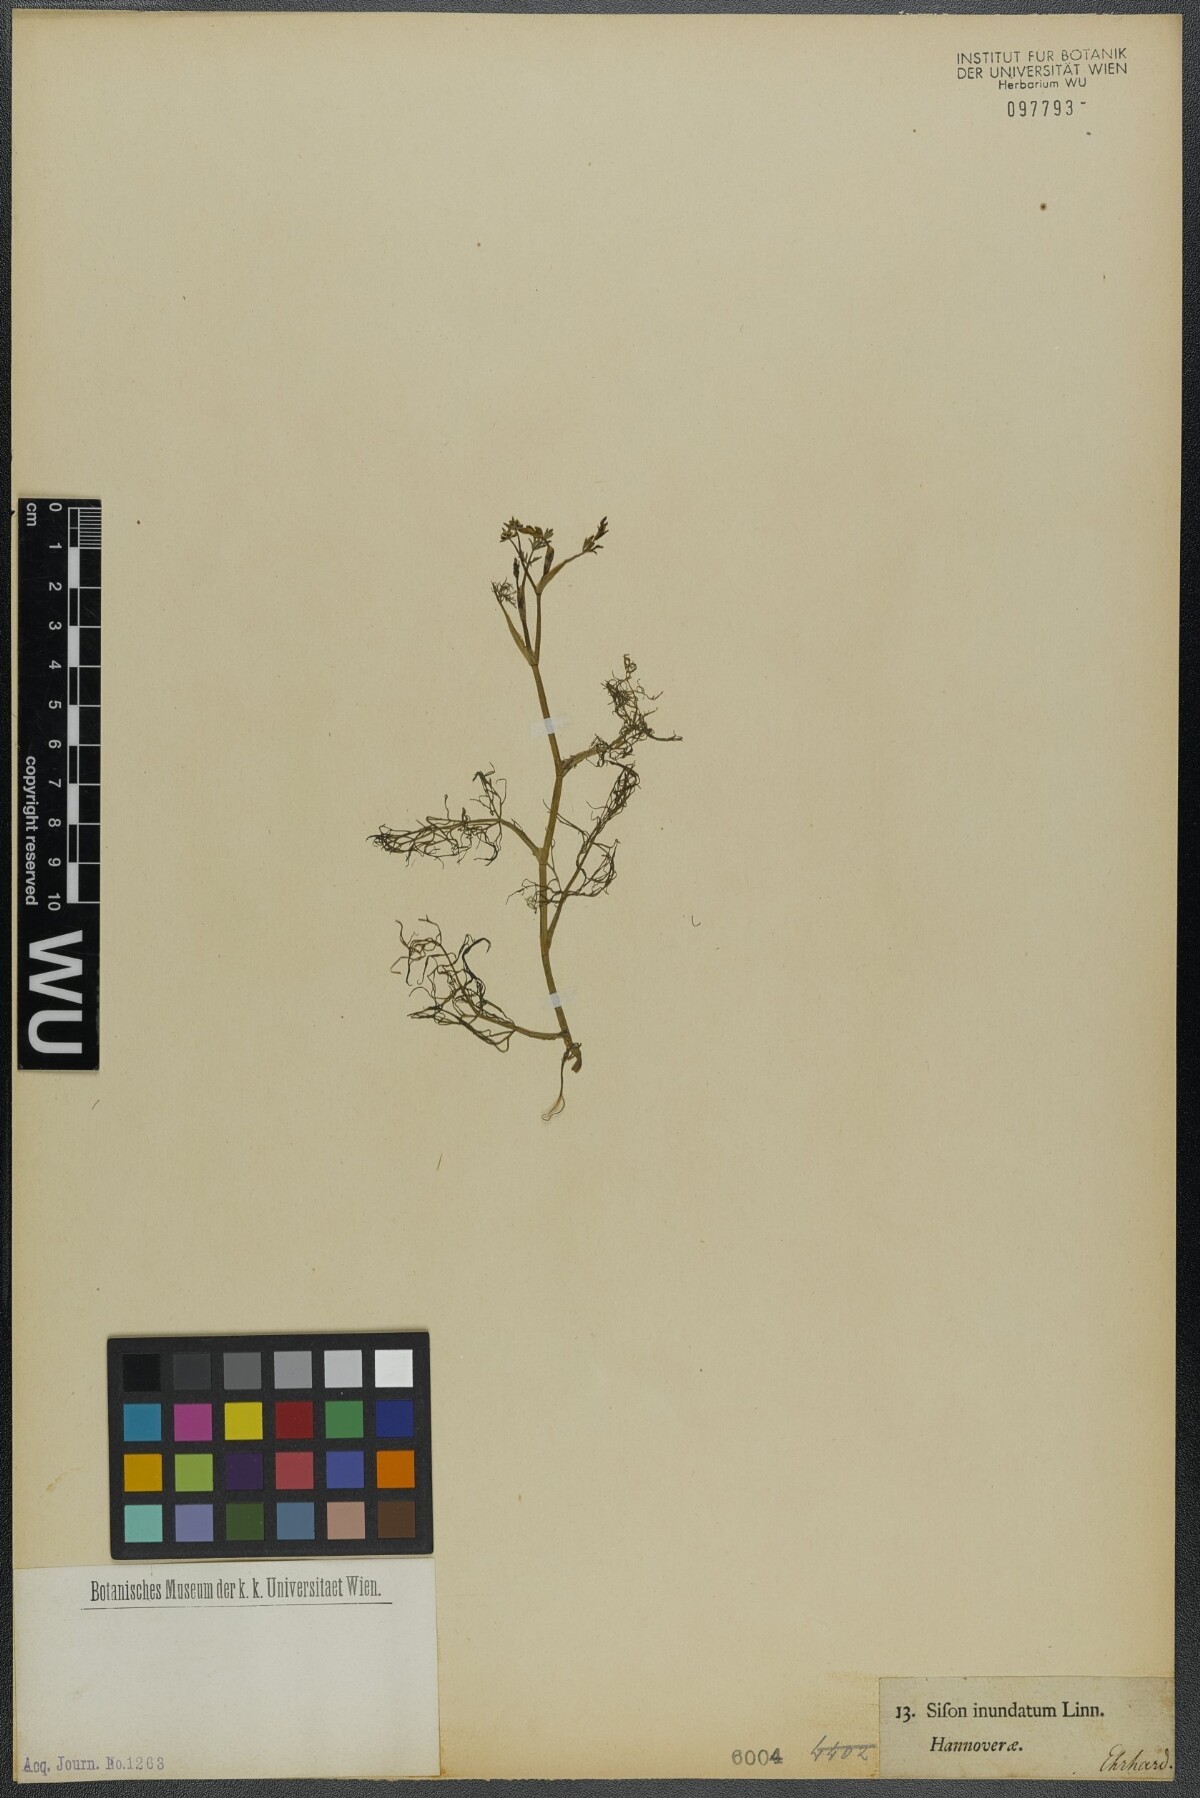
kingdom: Plantae
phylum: Tracheophyta
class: Magnoliopsida
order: Apiales
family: Apiaceae
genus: Helosciadium
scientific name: Helosciadium inundatum
